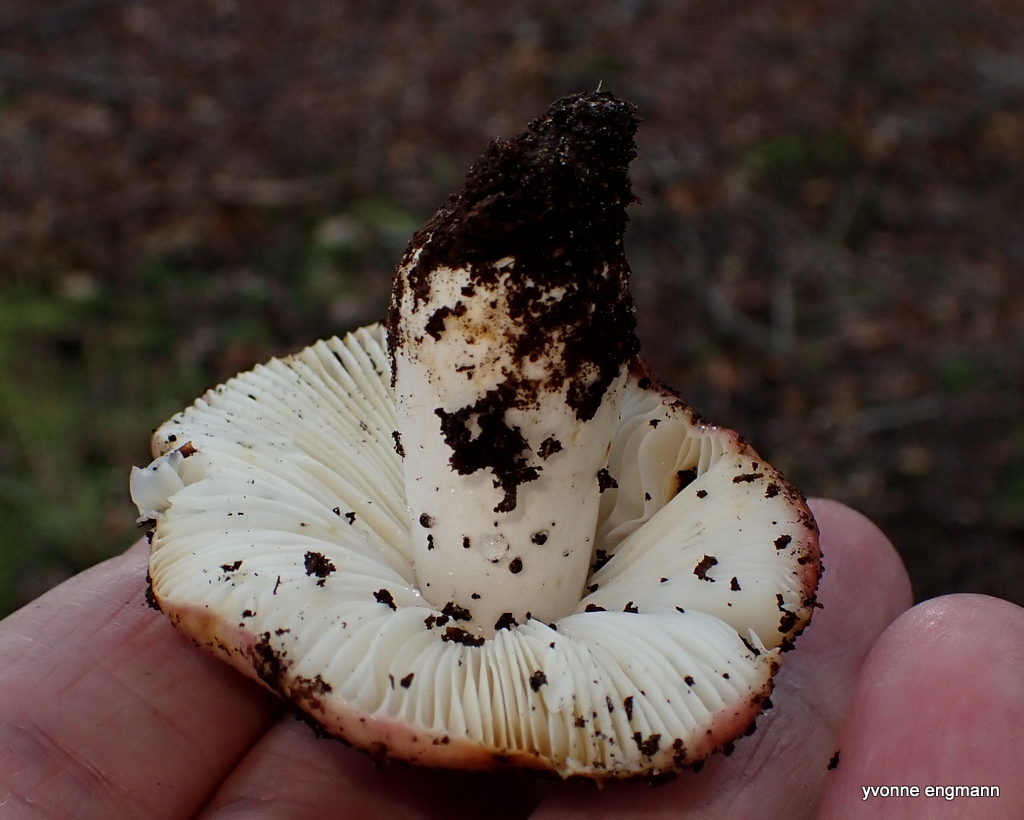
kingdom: Fungi
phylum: Basidiomycota
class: Agaricomycetes
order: Russulales
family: Russulaceae
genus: Russula
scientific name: Russula atropurpurea
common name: purpurbroget skørhat
